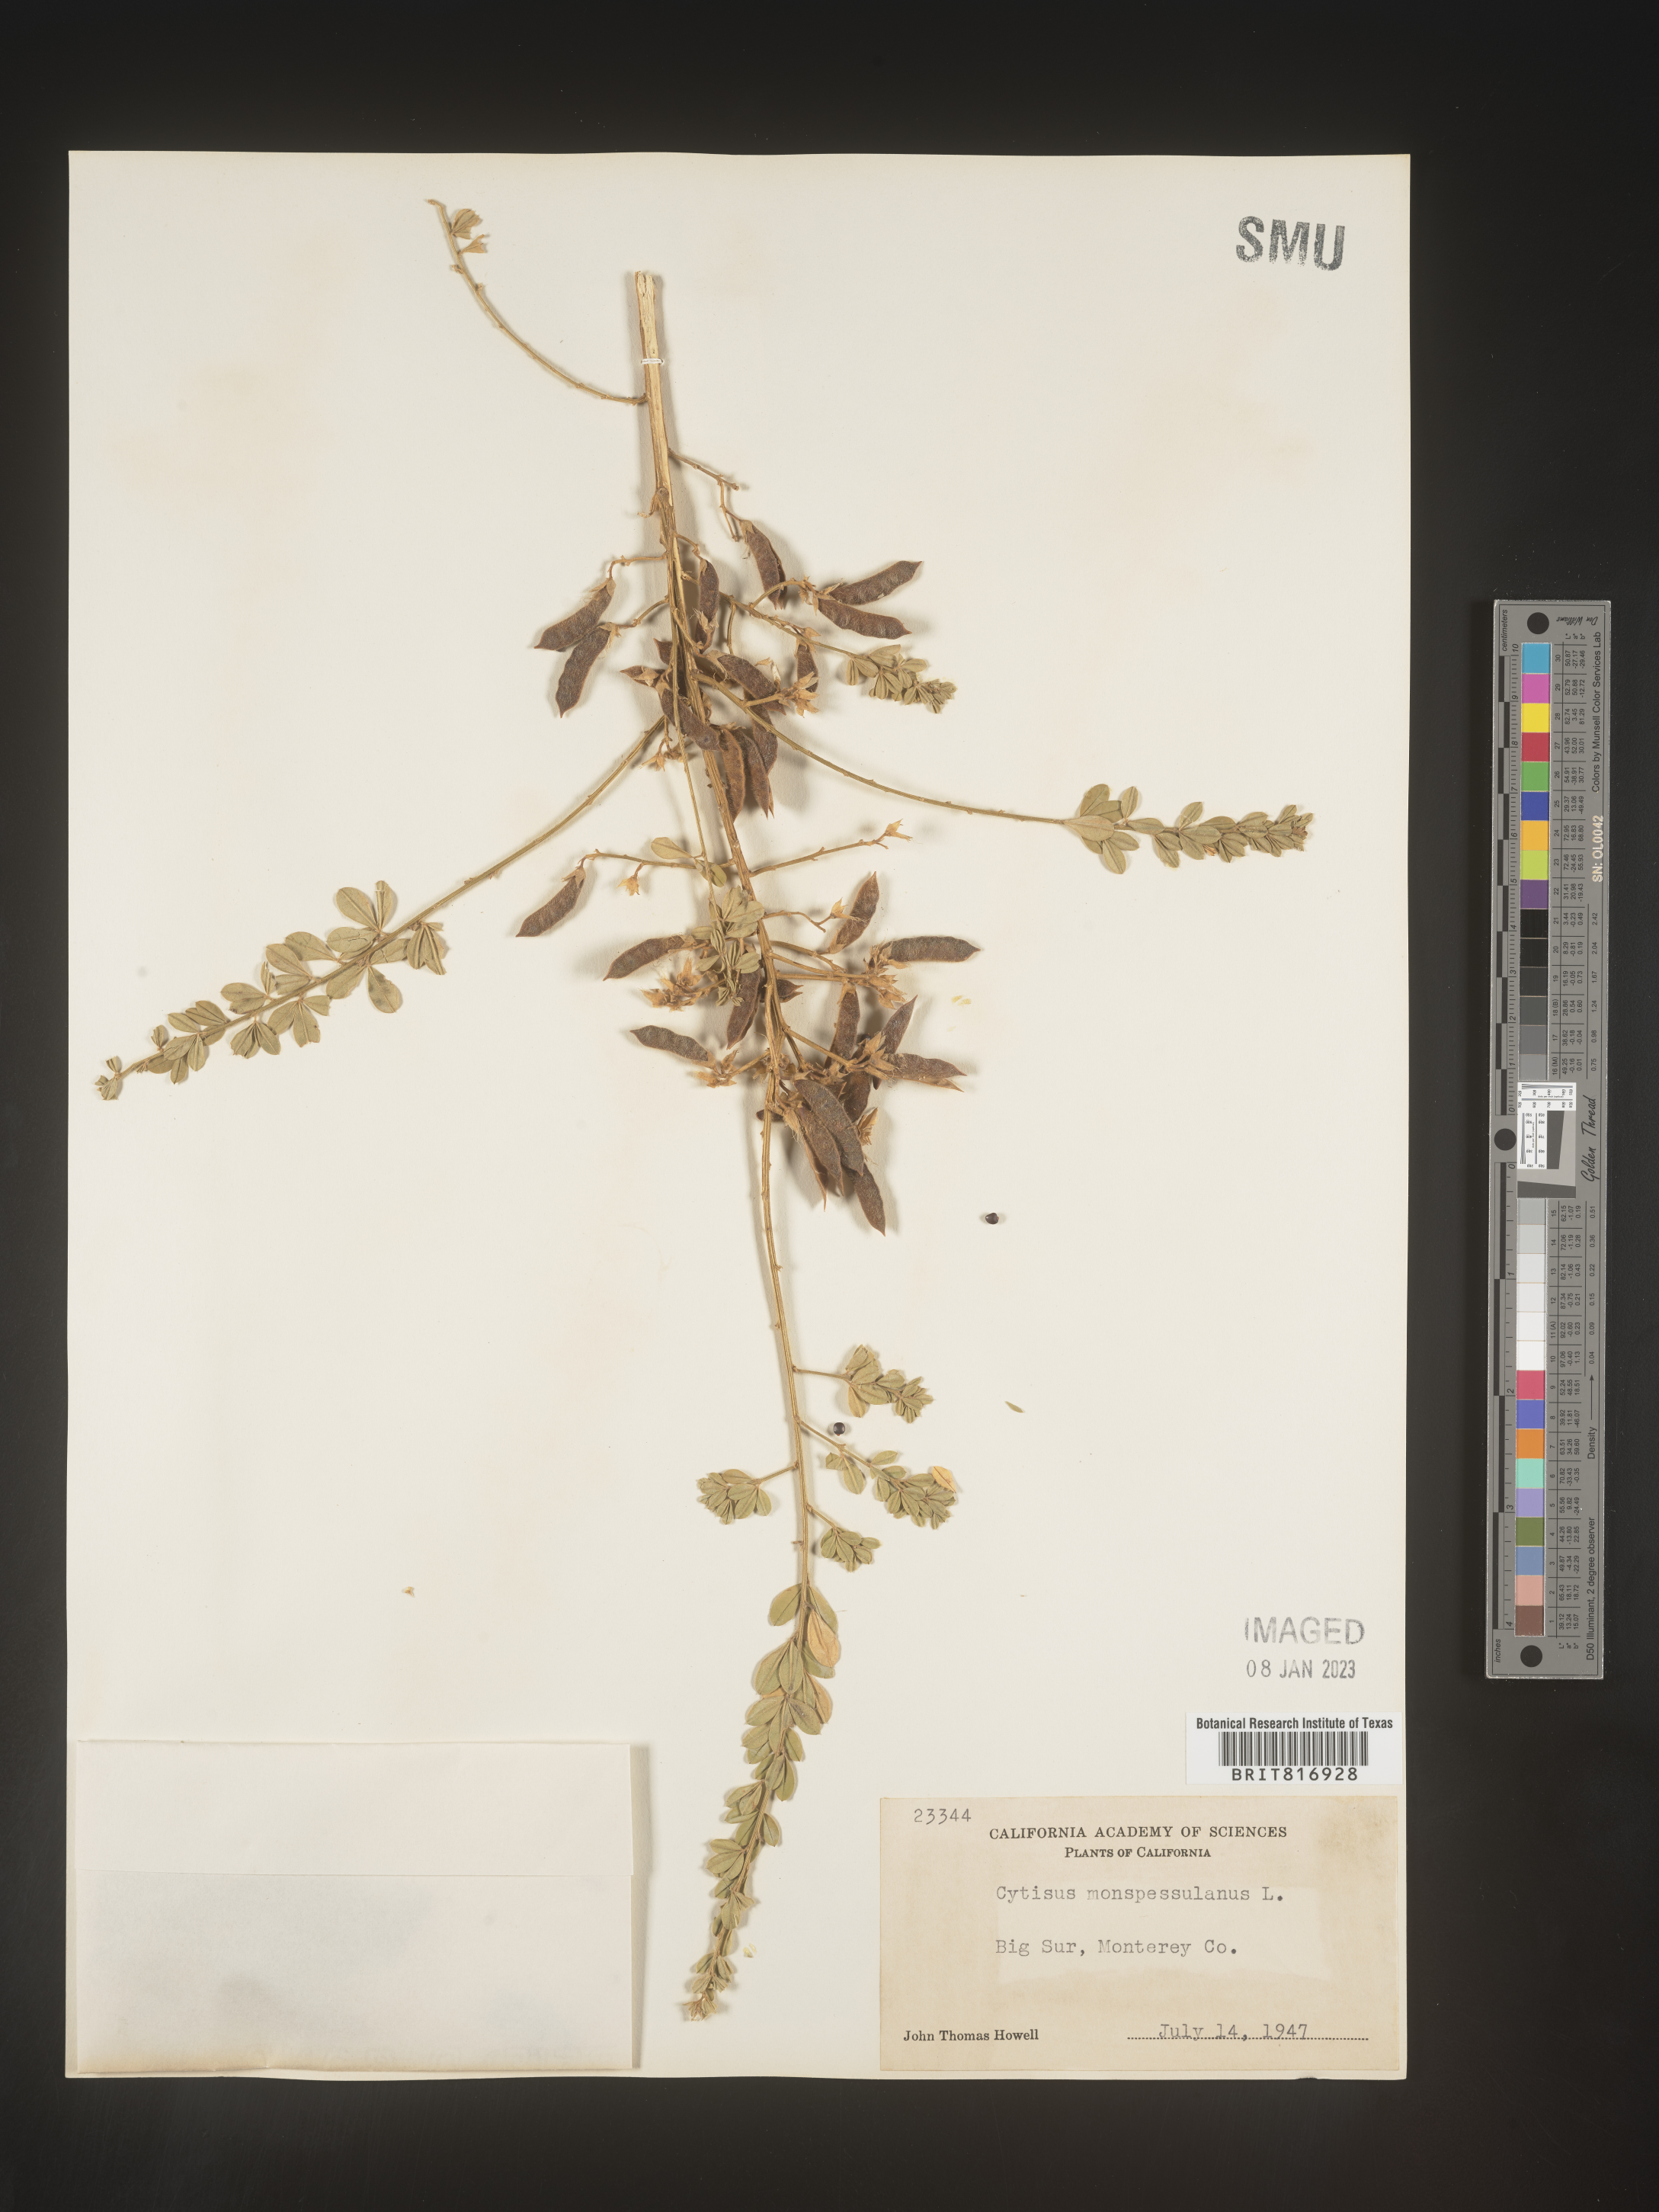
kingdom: Plantae
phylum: Tracheophyta
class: Magnoliopsida
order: Fabales
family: Fabaceae
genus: Cytisus
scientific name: Cytisus
